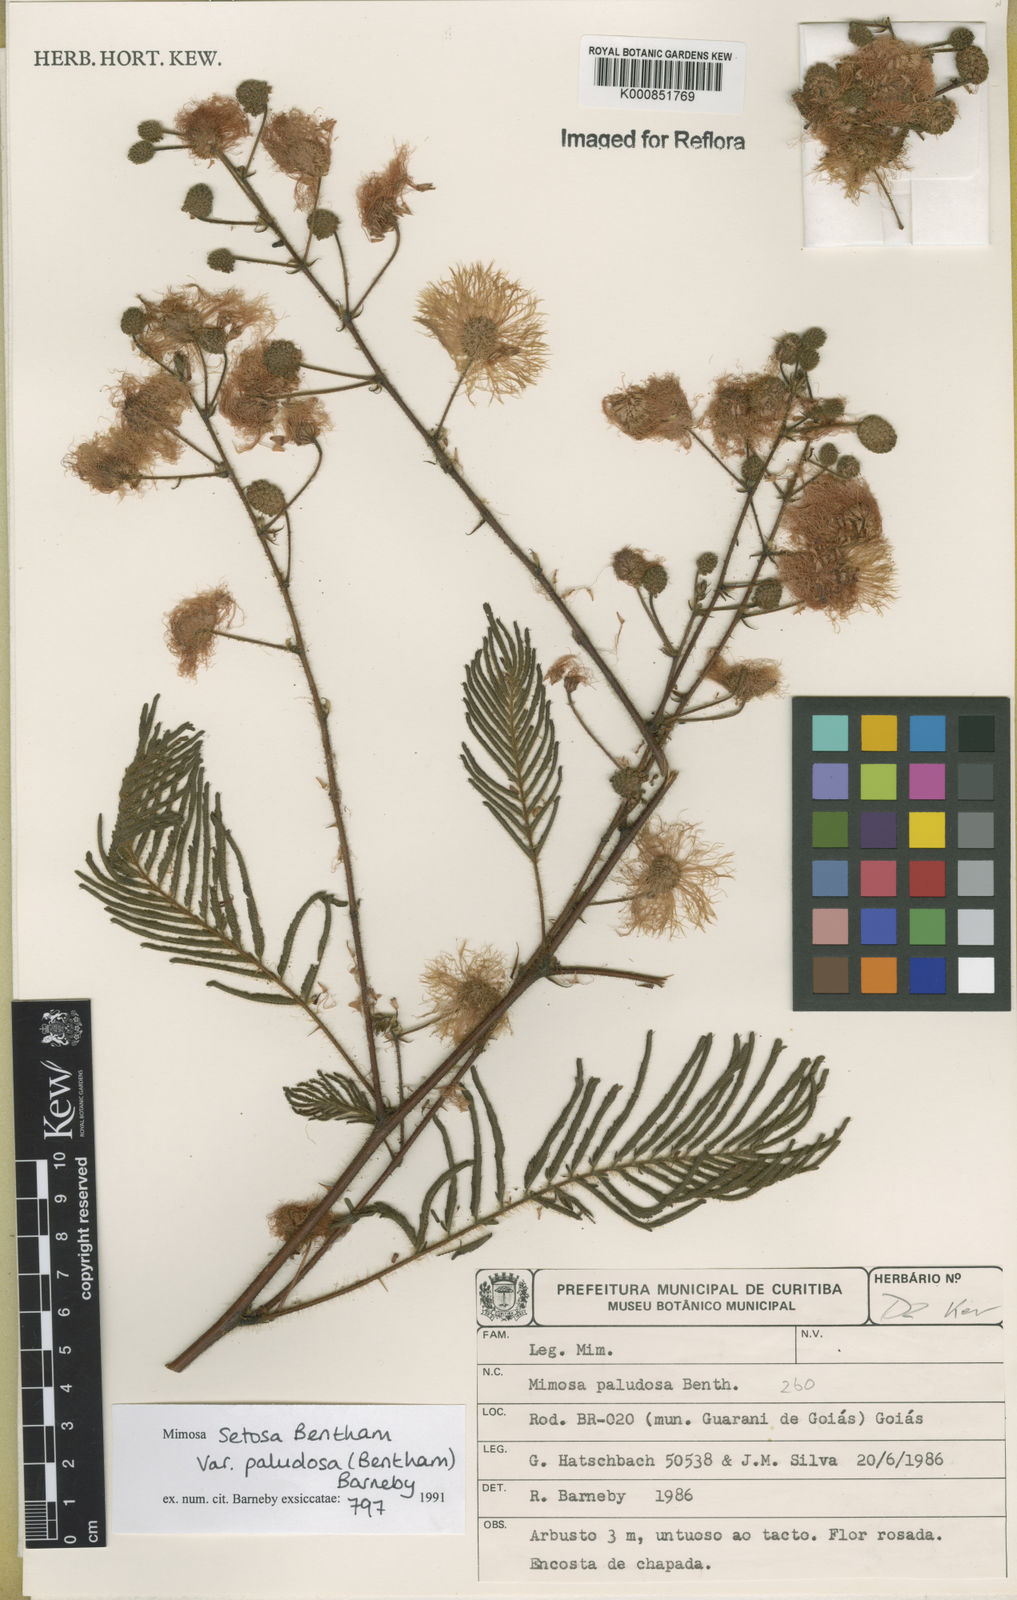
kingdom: Plantae
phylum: Tracheophyta
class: Magnoliopsida
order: Fabales
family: Fabaceae
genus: Mimosa
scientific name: Mimosa paludosa
